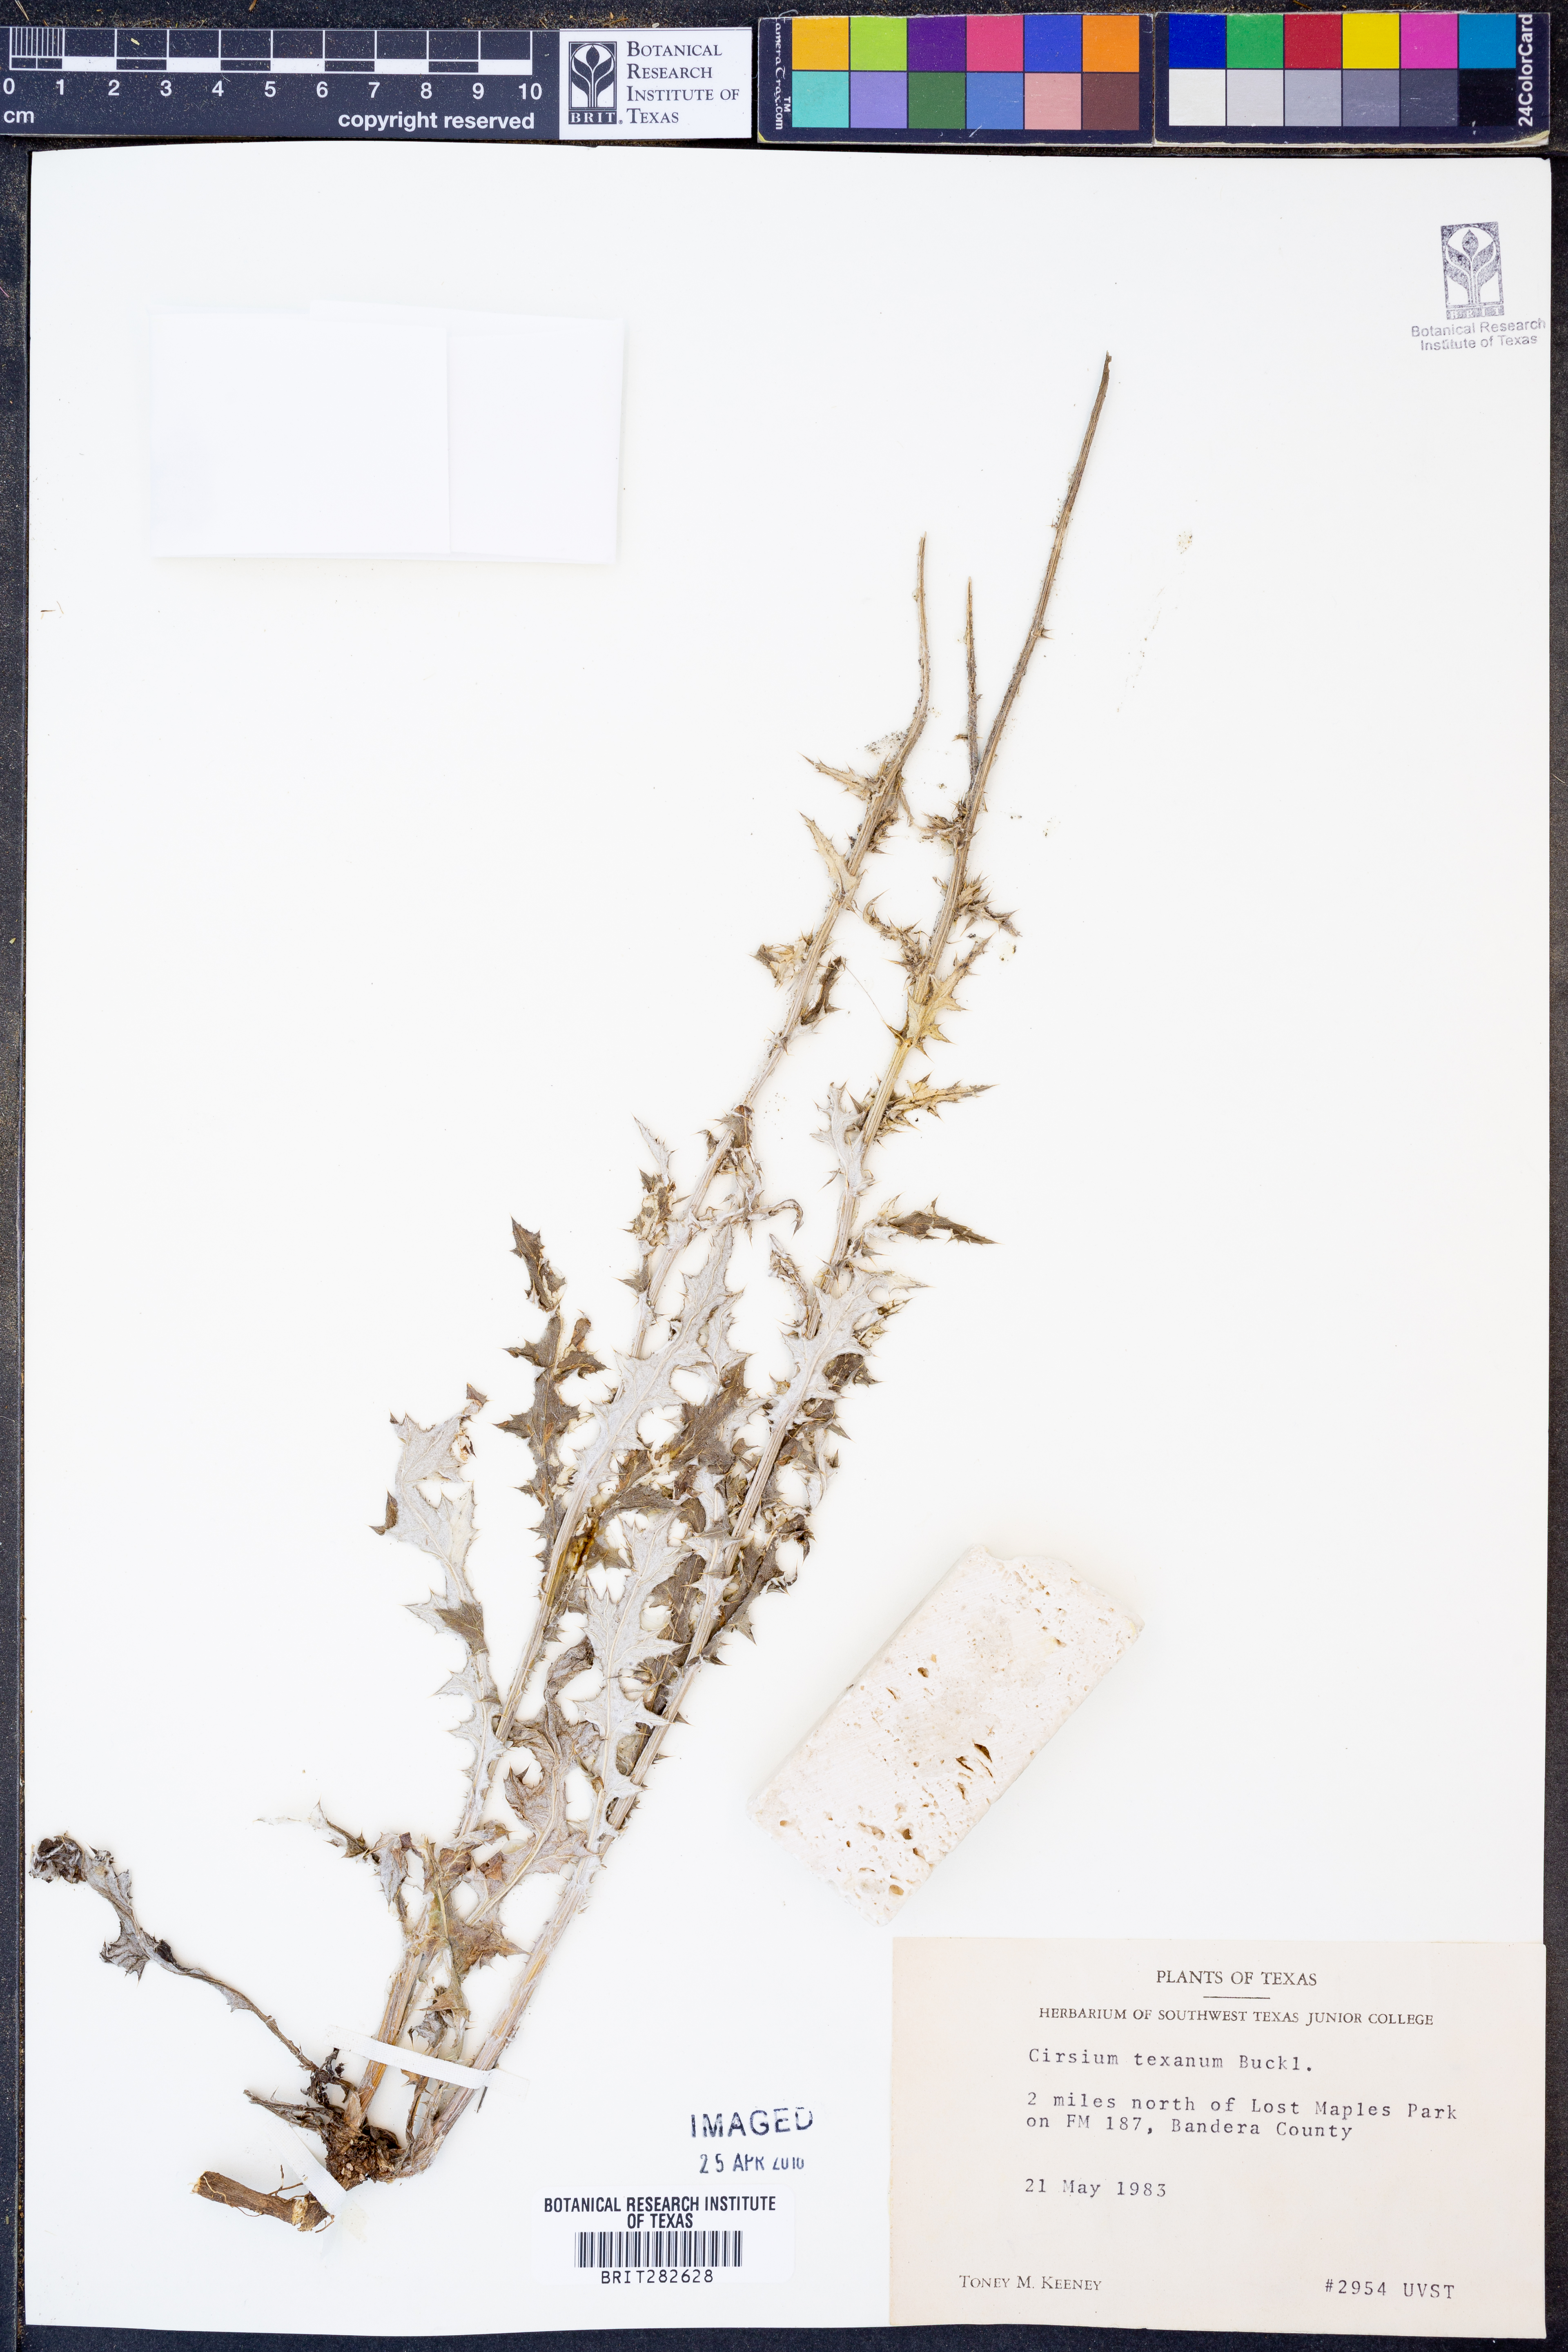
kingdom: Plantae
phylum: Tracheophyta
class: Magnoliopsida
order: Asterales
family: Asteraceae
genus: Cirsium
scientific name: Cirsium texanum
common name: Texas purple thistle
